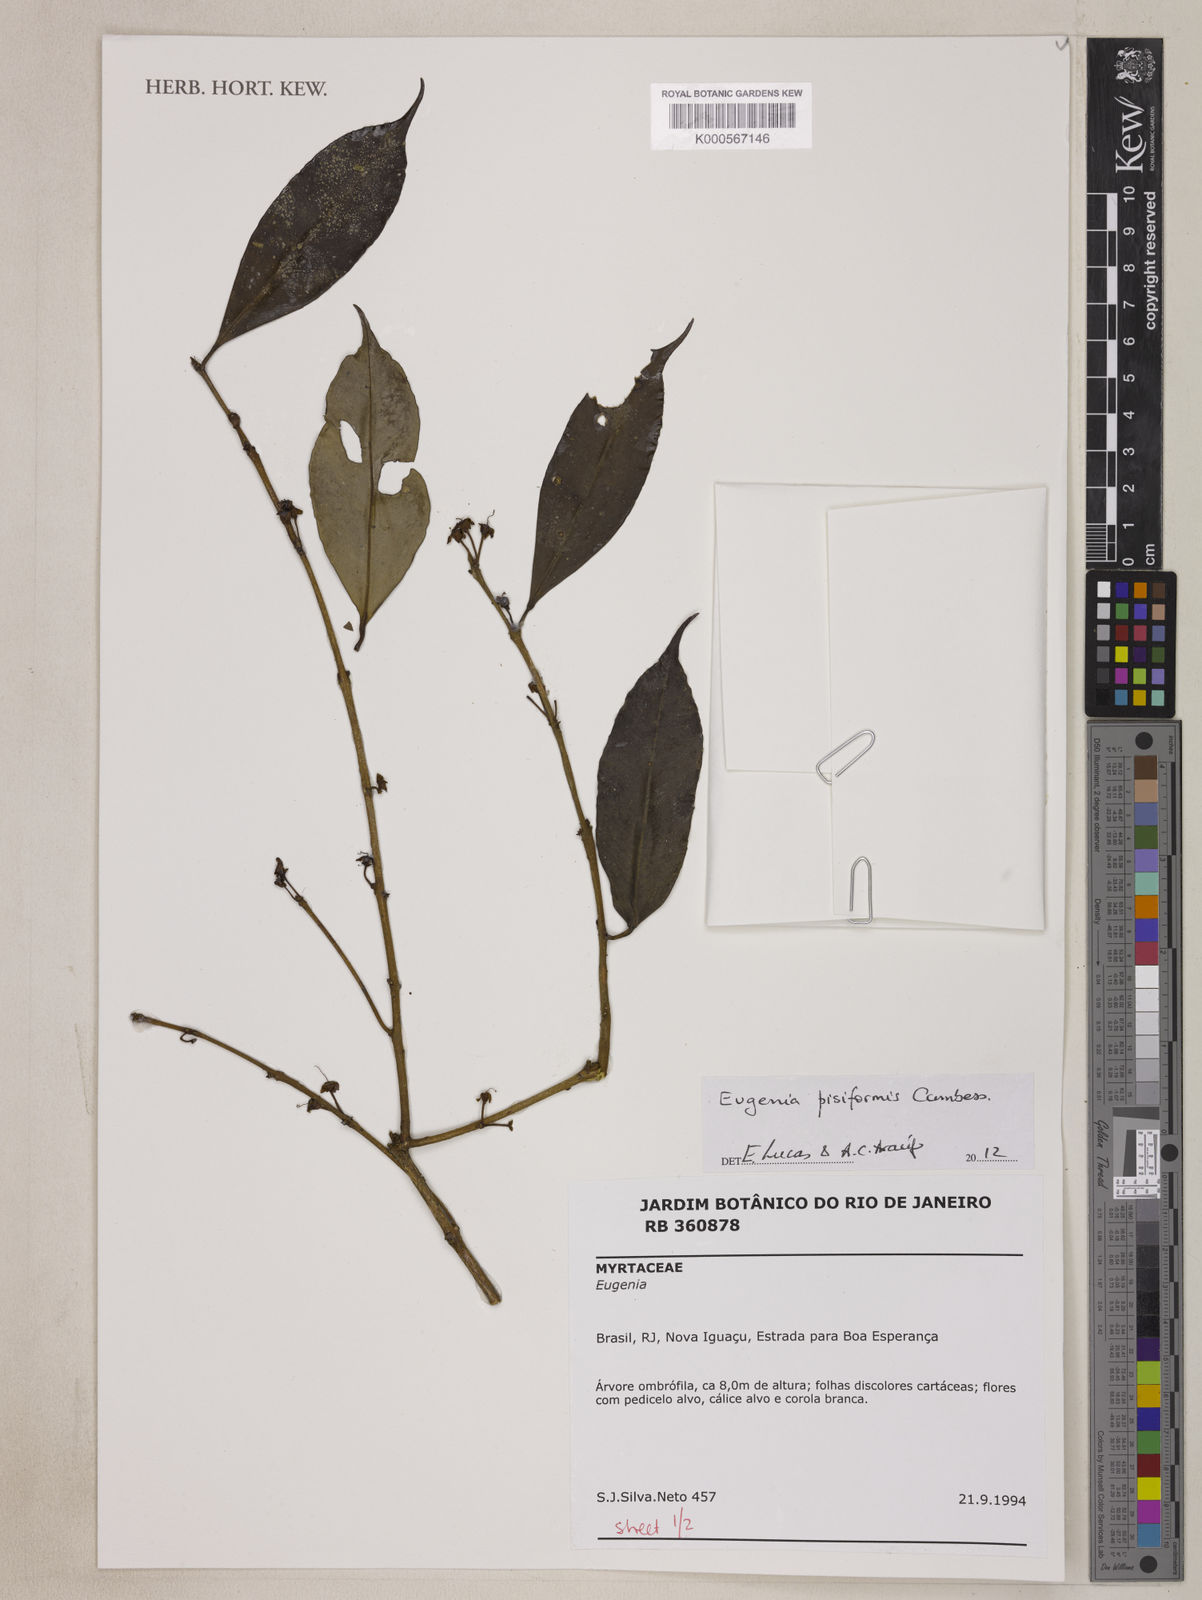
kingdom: Plantae
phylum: Tracheophyta
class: Magnoliopsida
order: Myrtales
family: Myrtaceae
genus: Eugenia
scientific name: Eugenia
